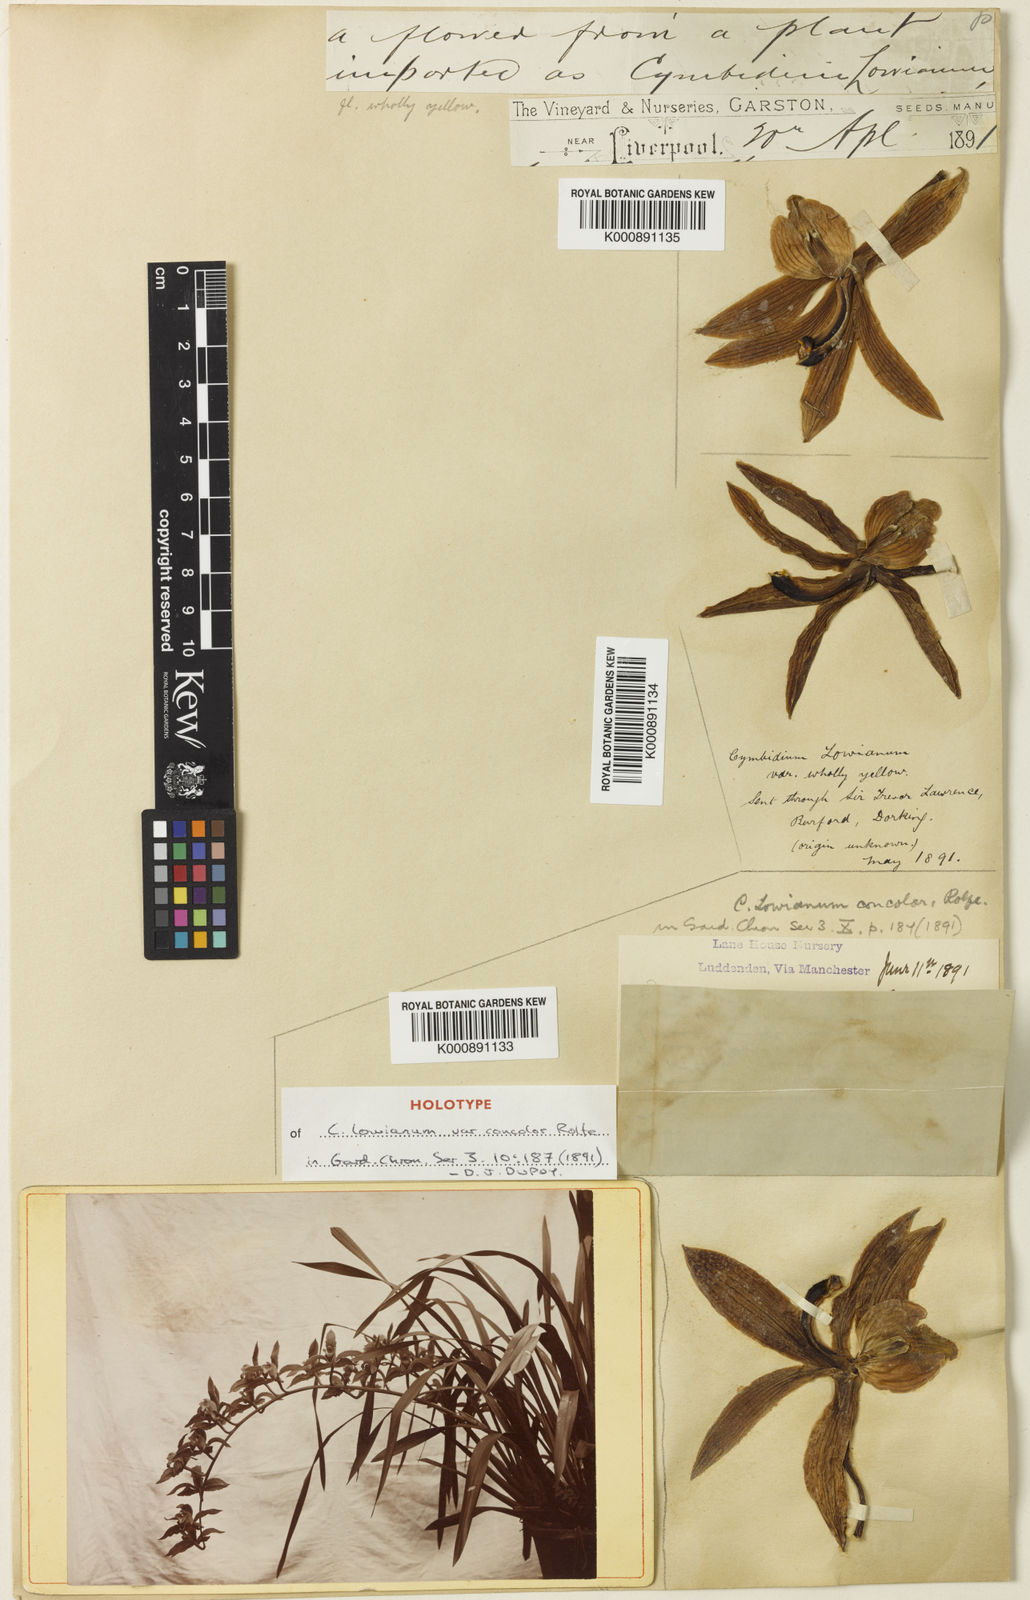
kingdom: Plantae
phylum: Tracheophyta
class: Liliopsida
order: Asparagales
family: Orchidaceae
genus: Cymbidium
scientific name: Cymbidium lowianum
